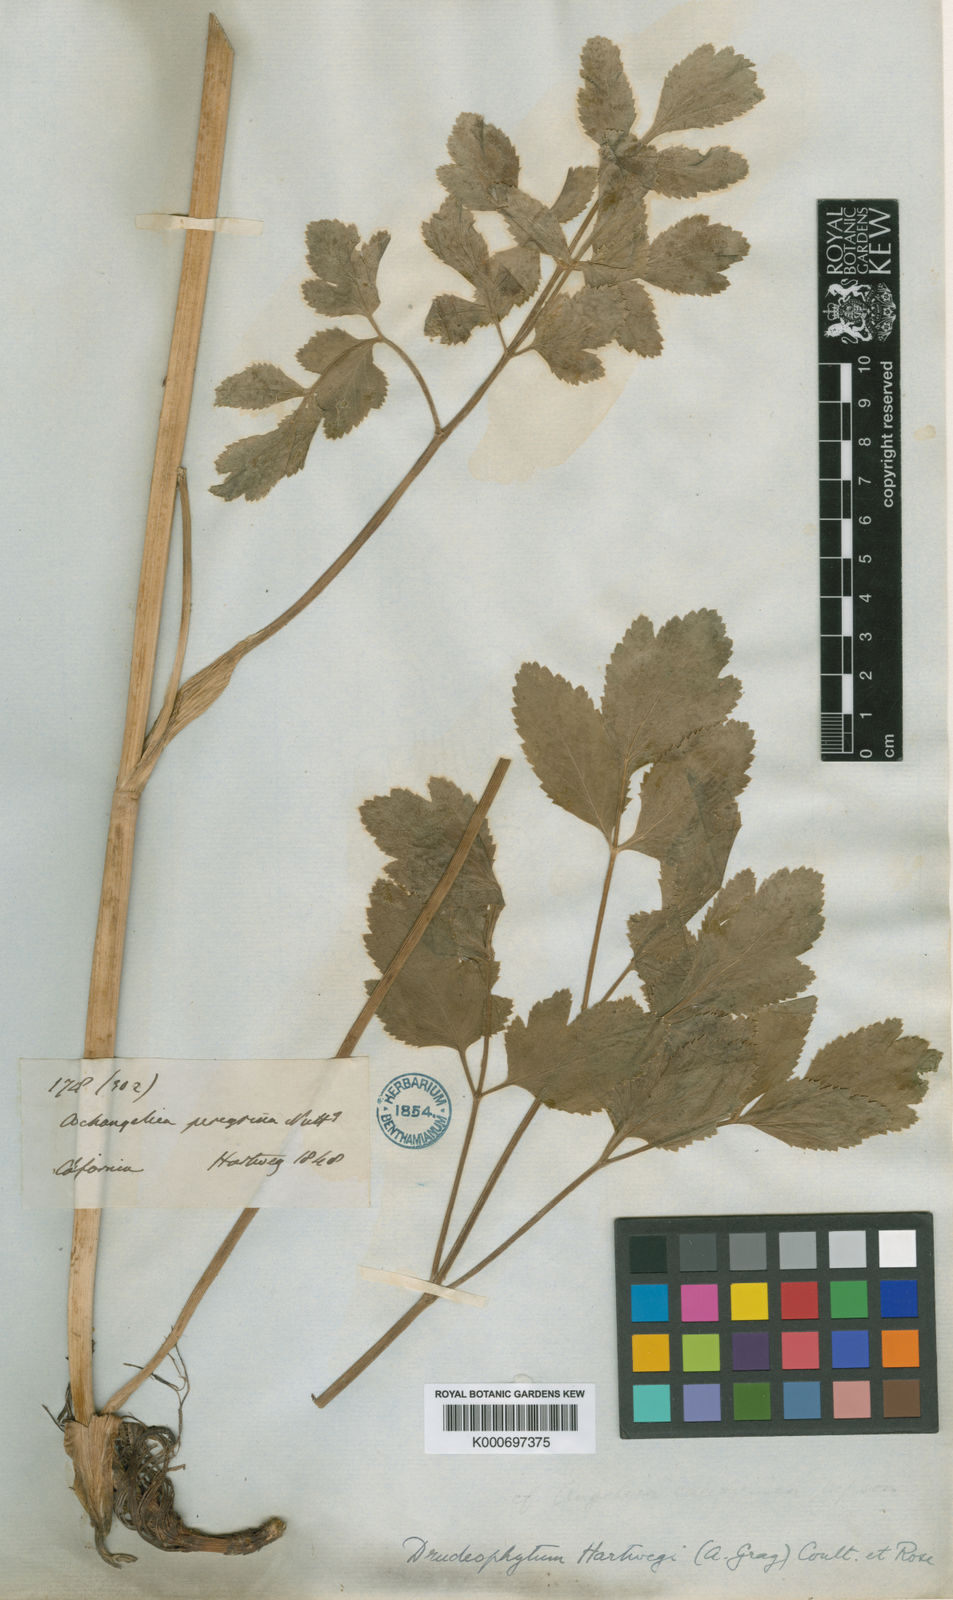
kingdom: Plantae
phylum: Tracheophyta
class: Magnoliopsida
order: Apiales
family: Apiaceae
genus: Tauschia
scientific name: Tauschia hartwegii
